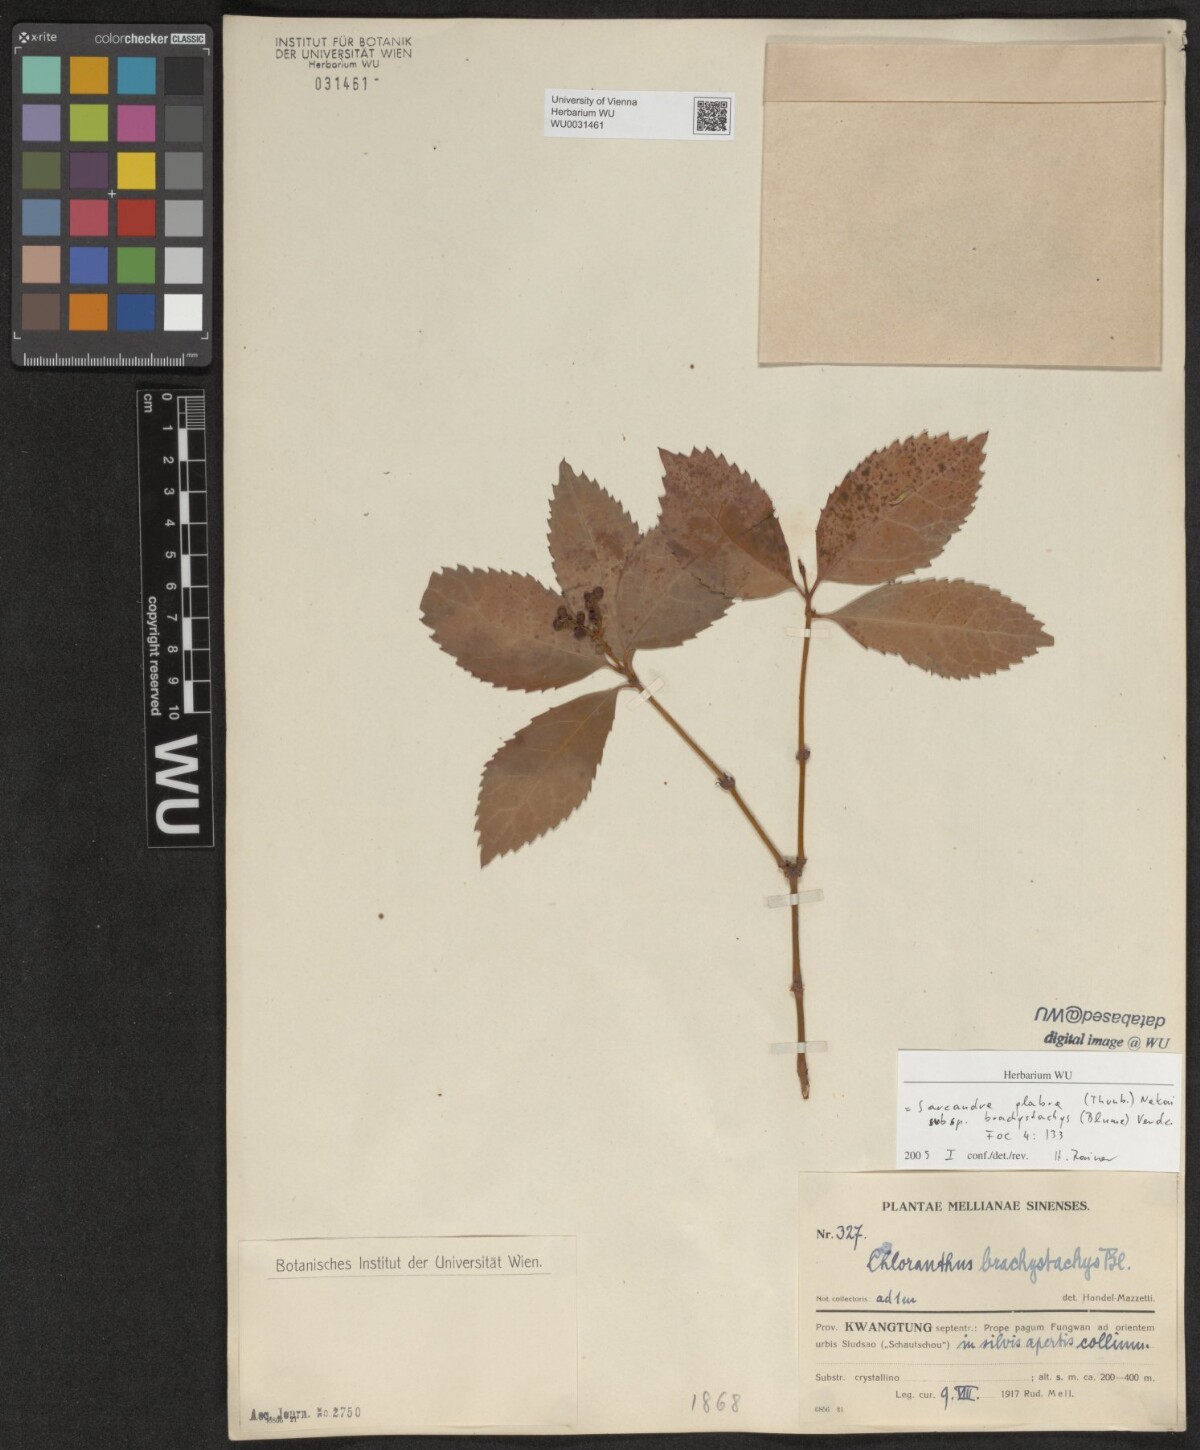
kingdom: Plantae
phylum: Tracheophyta
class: Magnoliopsida
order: Chloranthales
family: Chloranthaceae
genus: Sarcandra
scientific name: Sarcandra glabra
